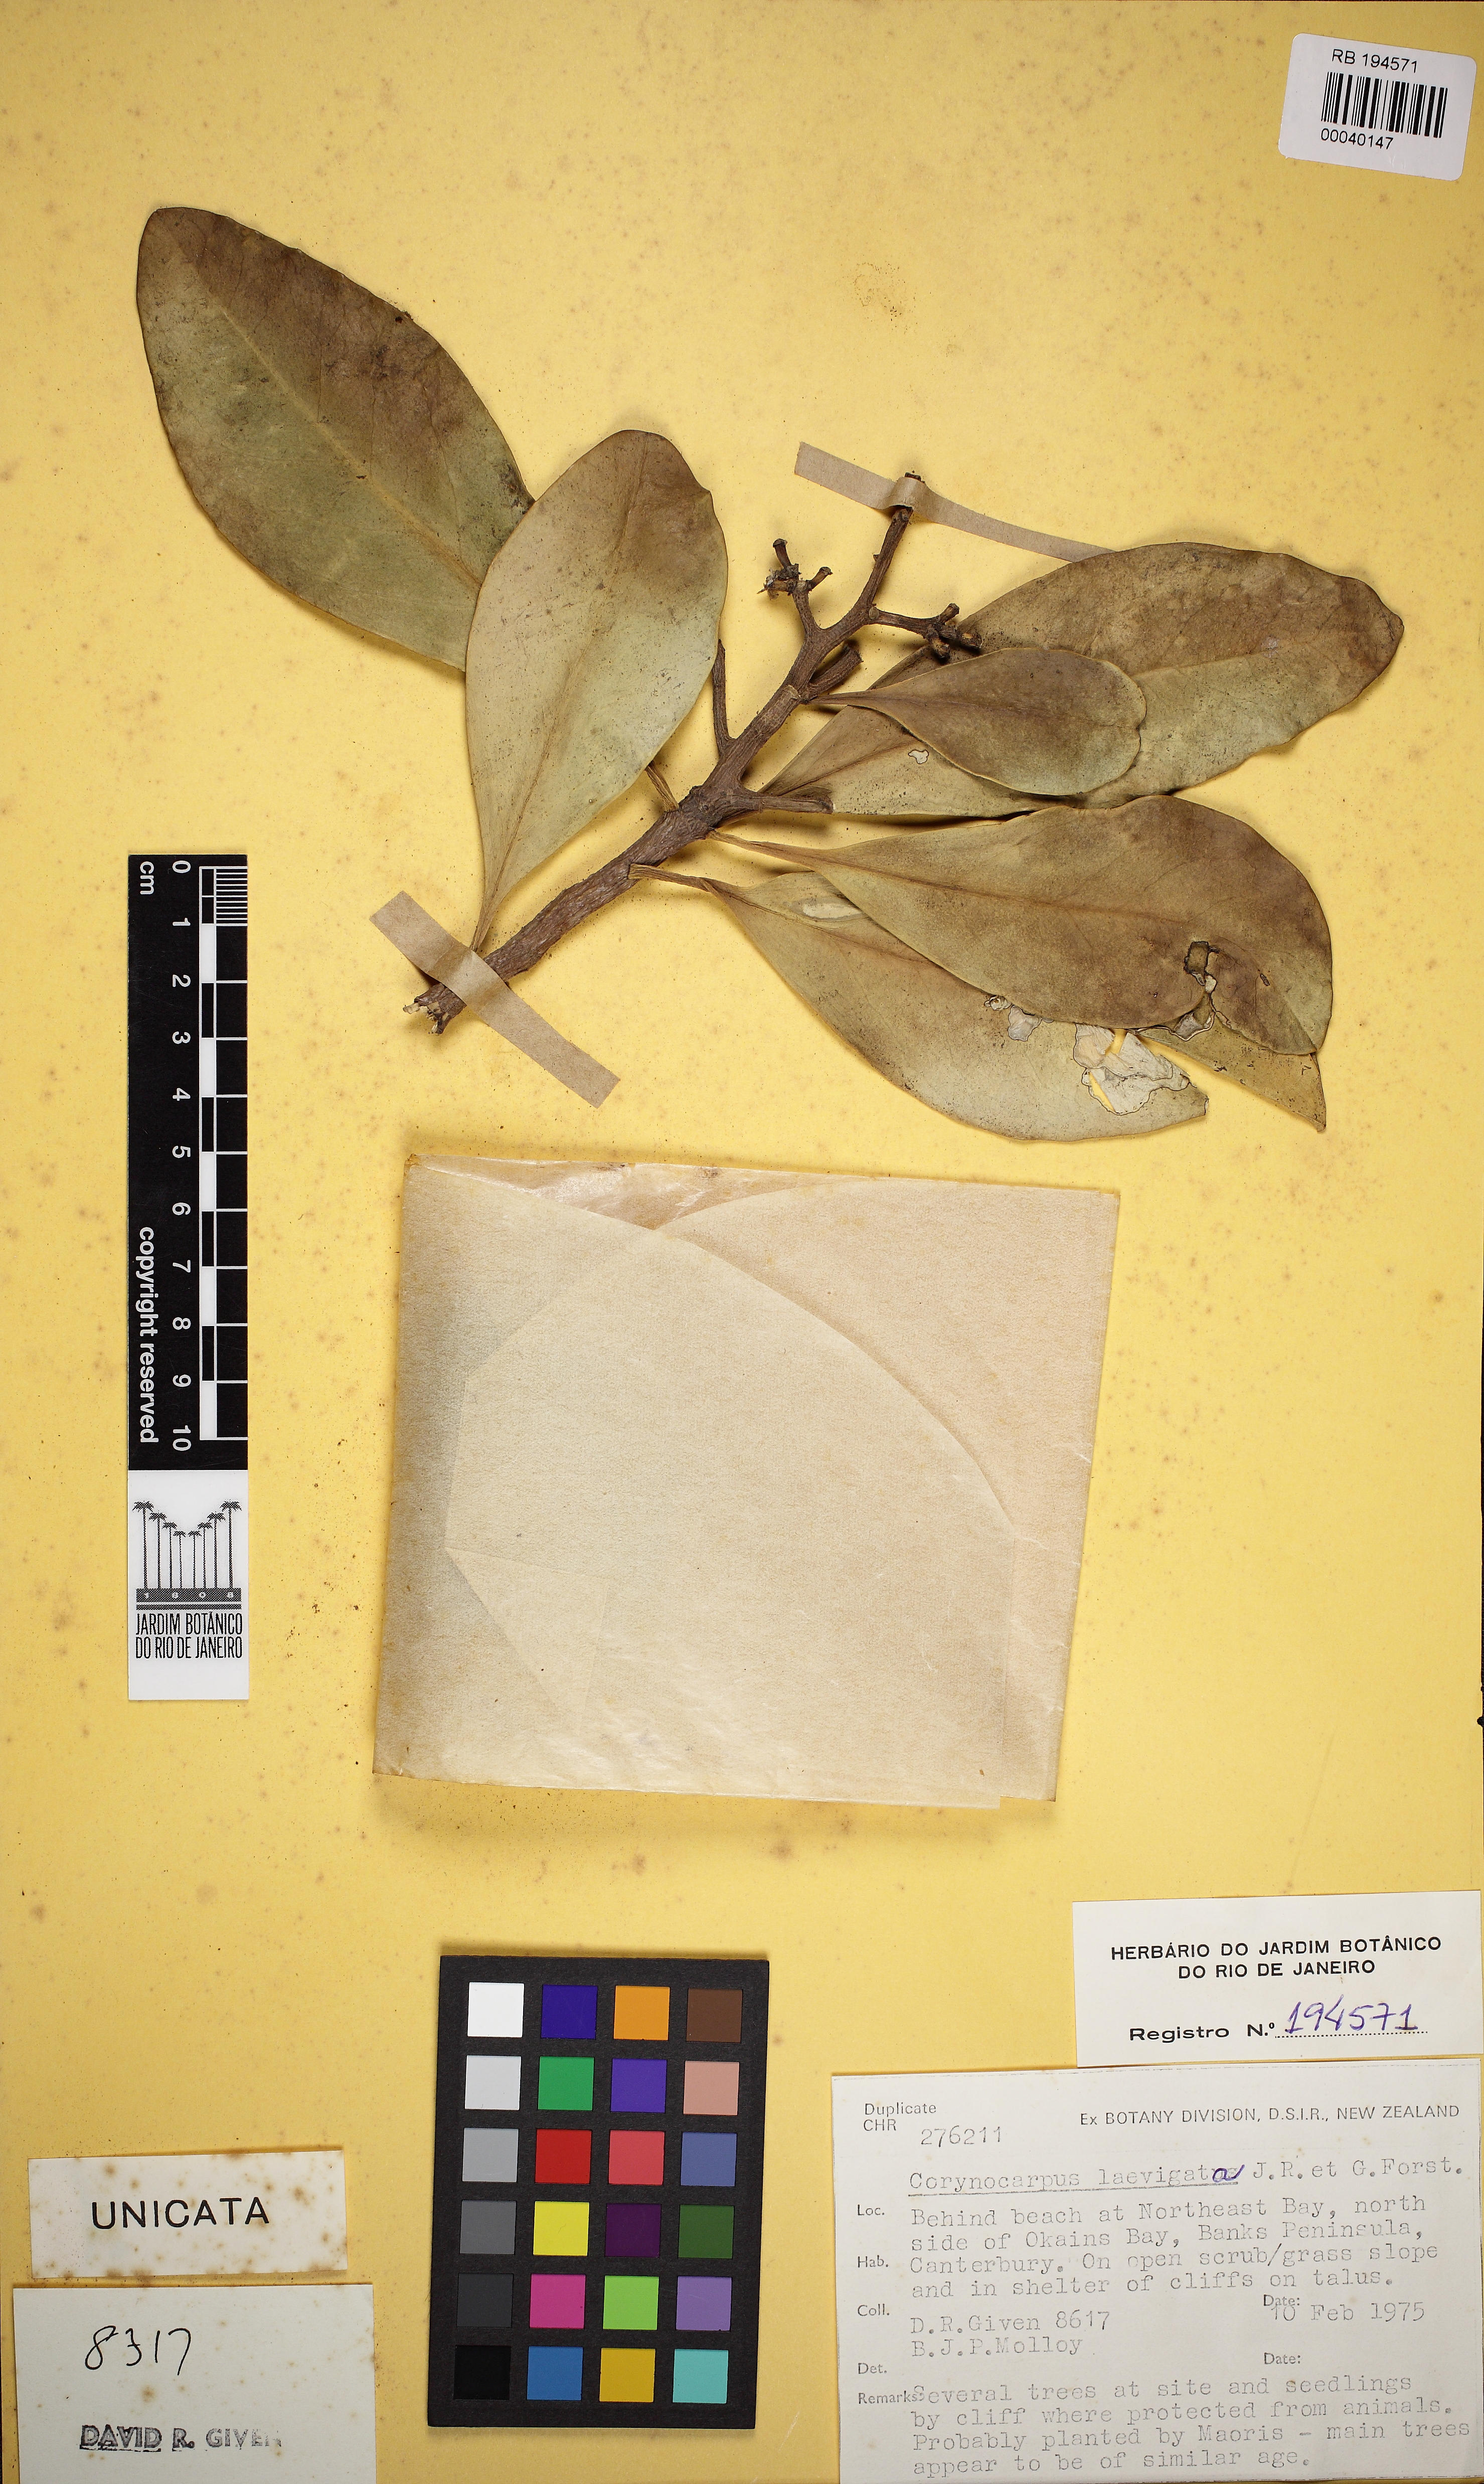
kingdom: Plantae
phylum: Tracheophyta
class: Magnoliopsida
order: Cucurbitales
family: Corynocarpaceae
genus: Corynocarpus
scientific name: Corynocarpus laevigatus
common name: New zealand laurel
